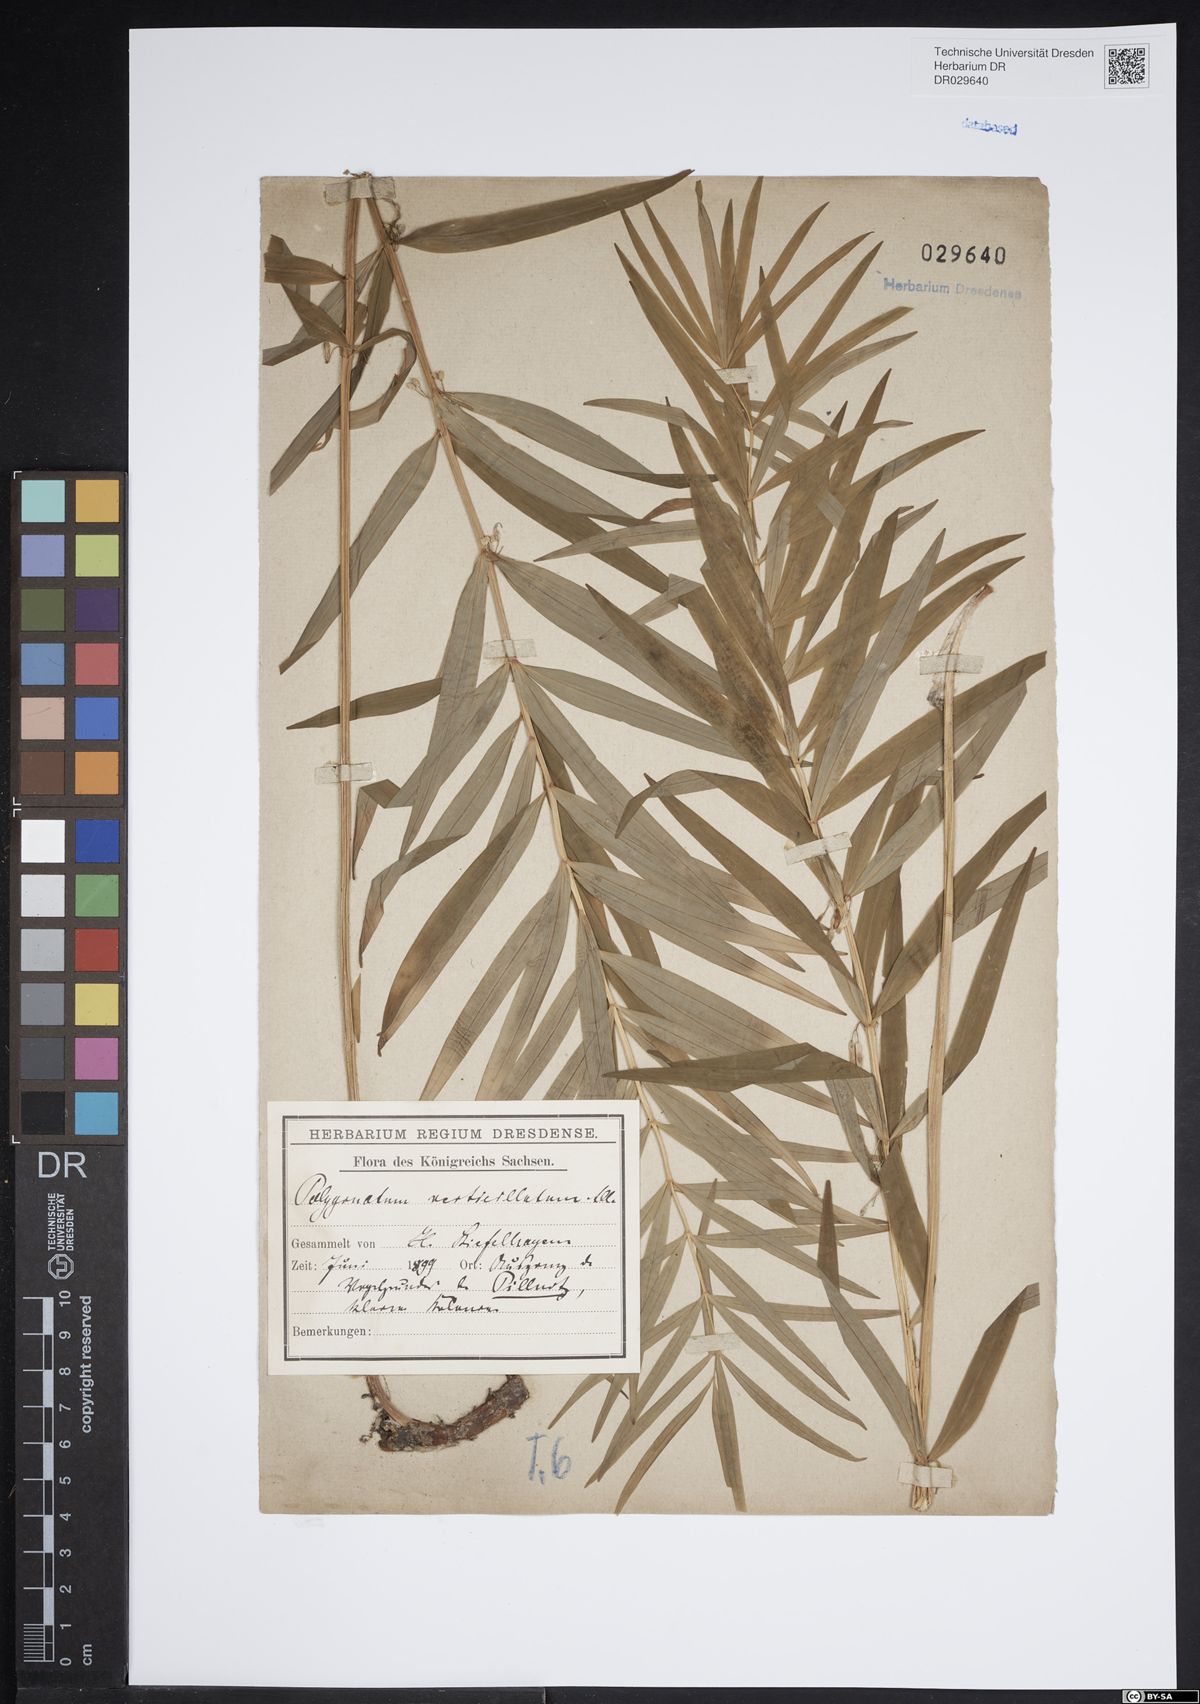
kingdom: Plantae
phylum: Tracheophyta
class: Liliopsida
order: Asparagales
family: Asparagaceae
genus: Polygonatum
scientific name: Polygonatum verticillatum
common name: Whorled solomon's-seal
